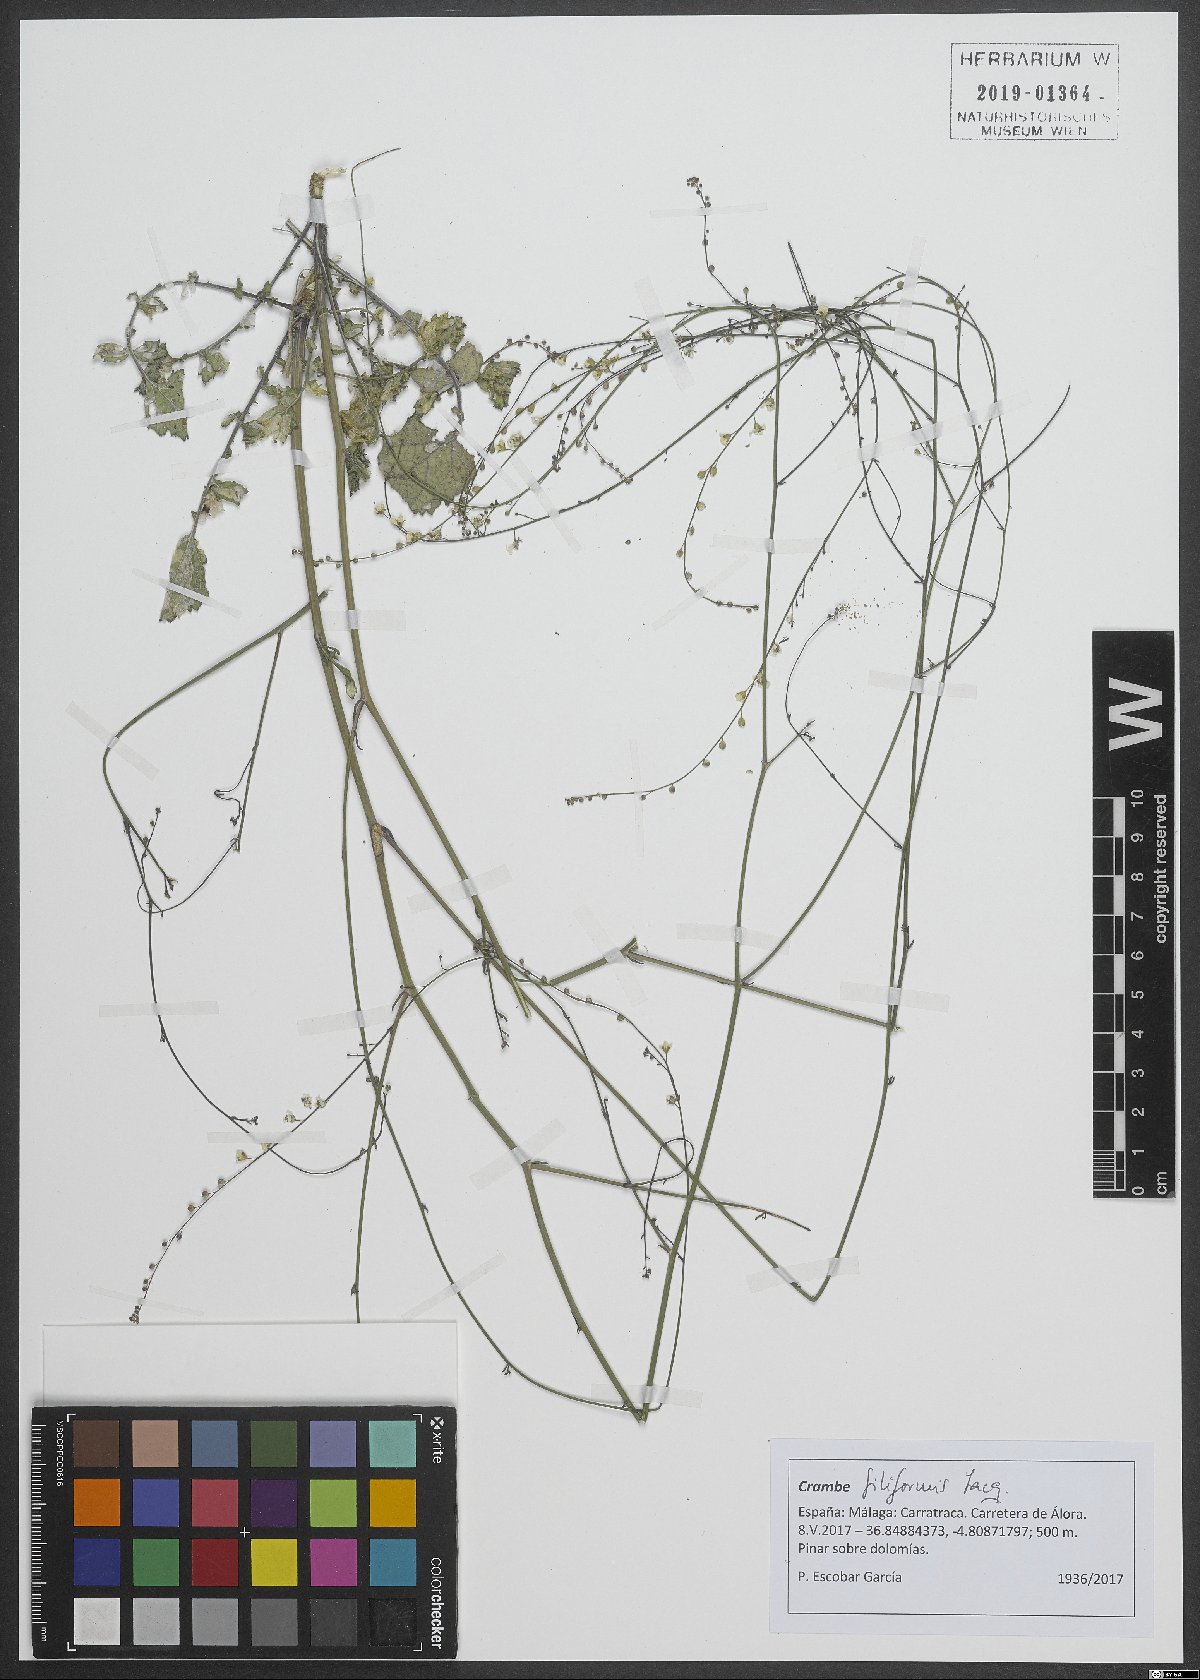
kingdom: Plantae
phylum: Tracheophyta
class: Magnoliopsida
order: Brassicales
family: Brassicaceae
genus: Crambe
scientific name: Crambe filiformis
